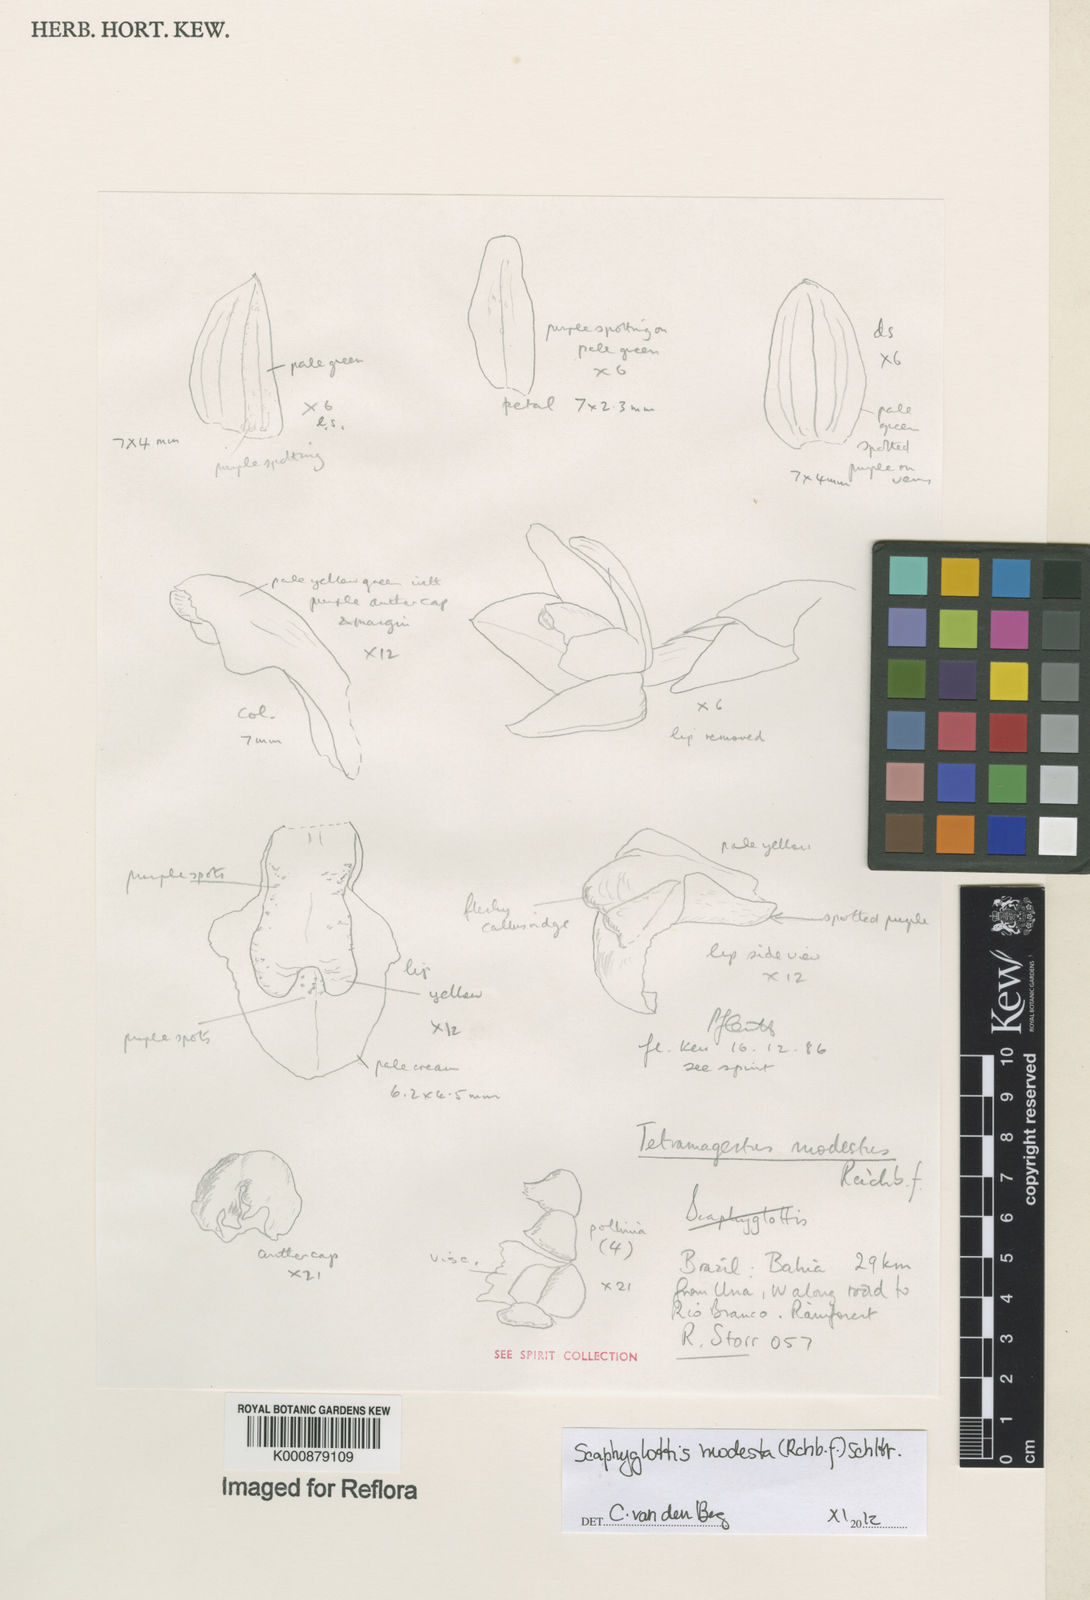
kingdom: Plantae
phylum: Tracheophyta
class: Liliopsida
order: Asparagales
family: Orchidaceae
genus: Scaphyglottis
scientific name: Scaphyglottis modesta
